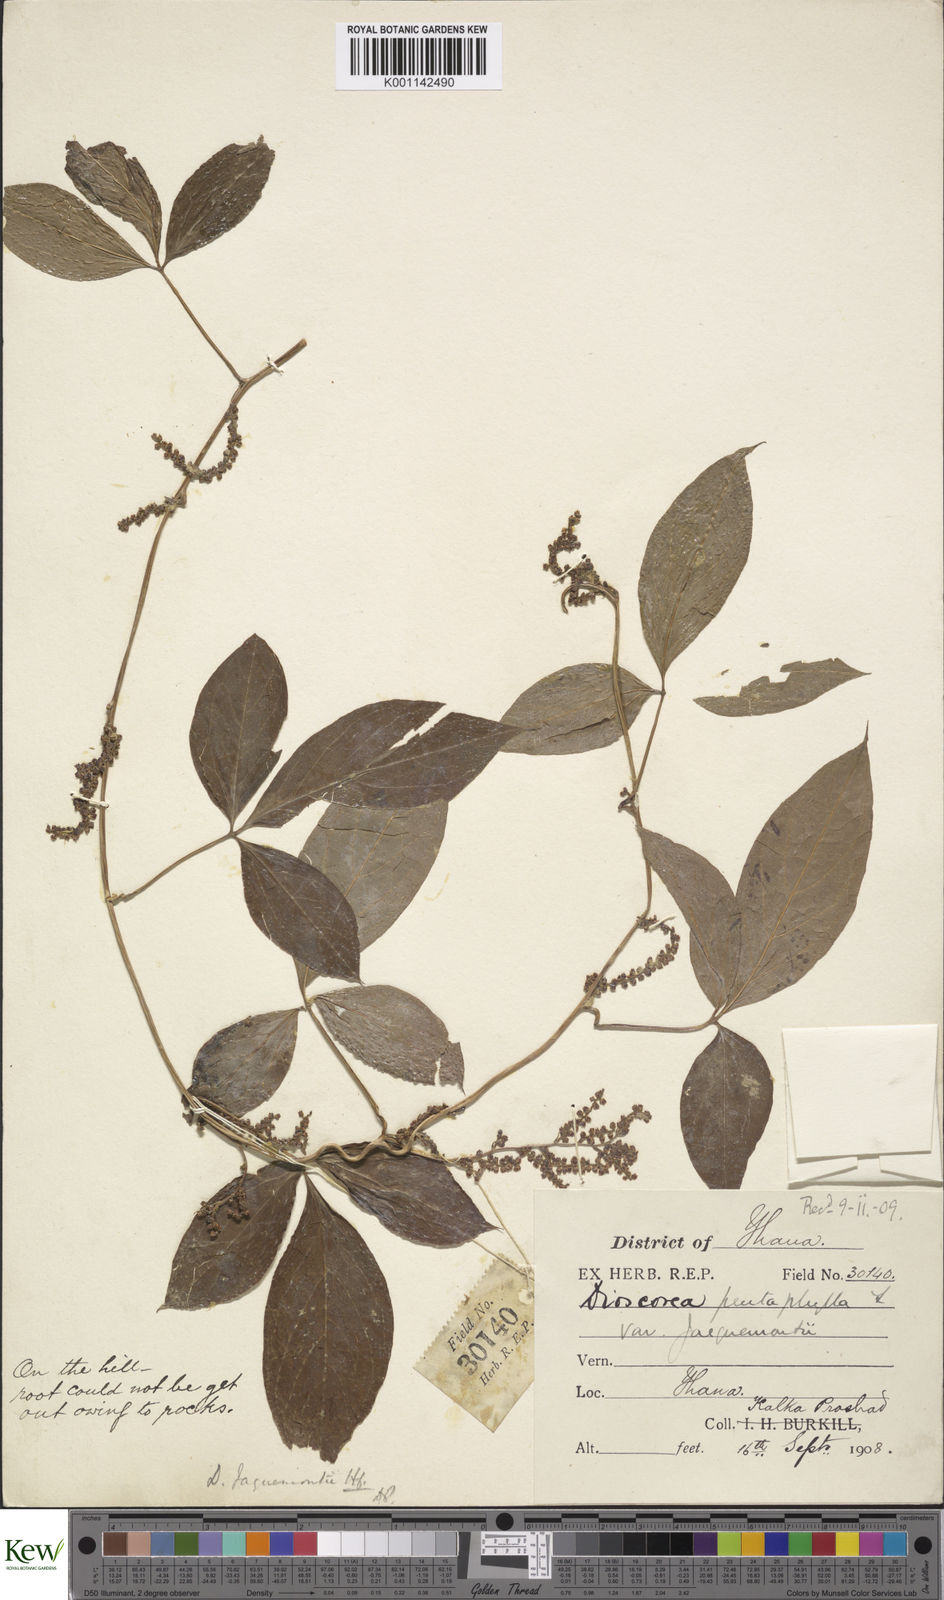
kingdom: Plantae
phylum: Tracheophyta
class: Liliopsida
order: Dioscoreales
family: Dioscoreaceae
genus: Dioscorea
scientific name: Dioscorea pentaphylla
